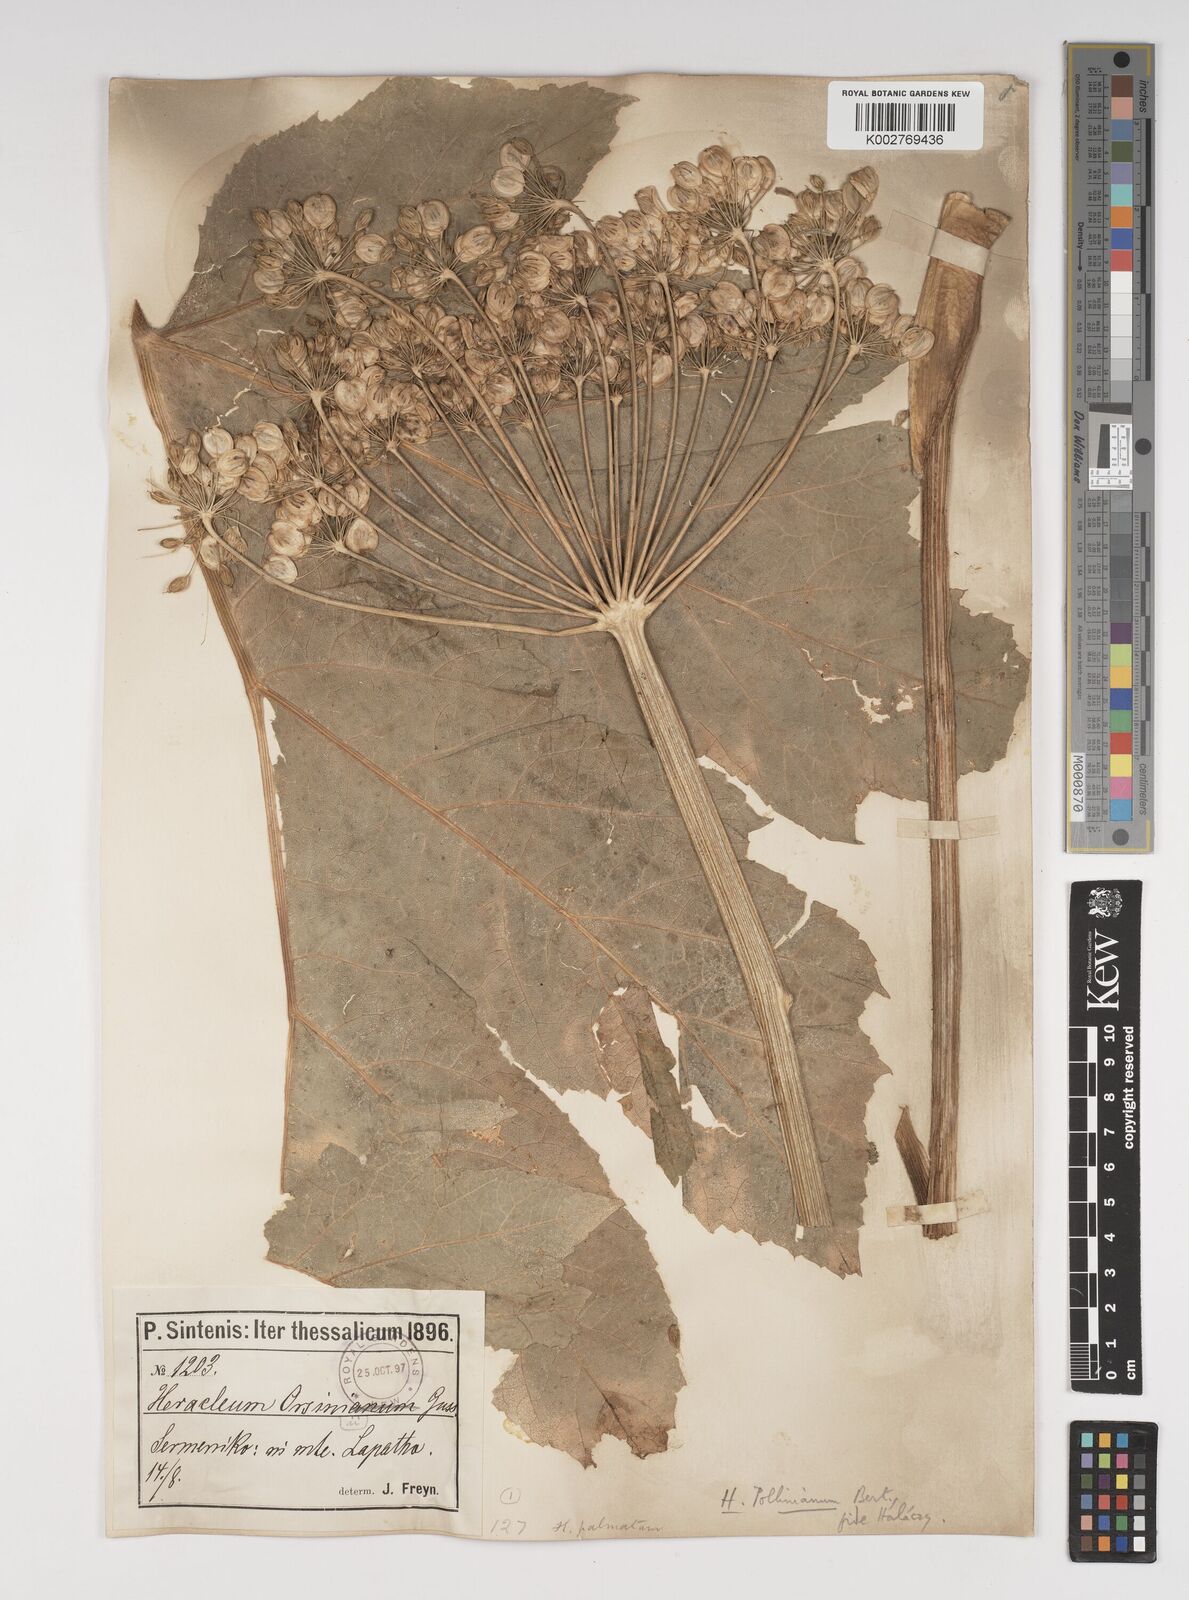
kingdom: Plantae
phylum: Tracheophyta
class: Magnoliopsida
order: Apiales
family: Apiaceae
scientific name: Apiaceae
